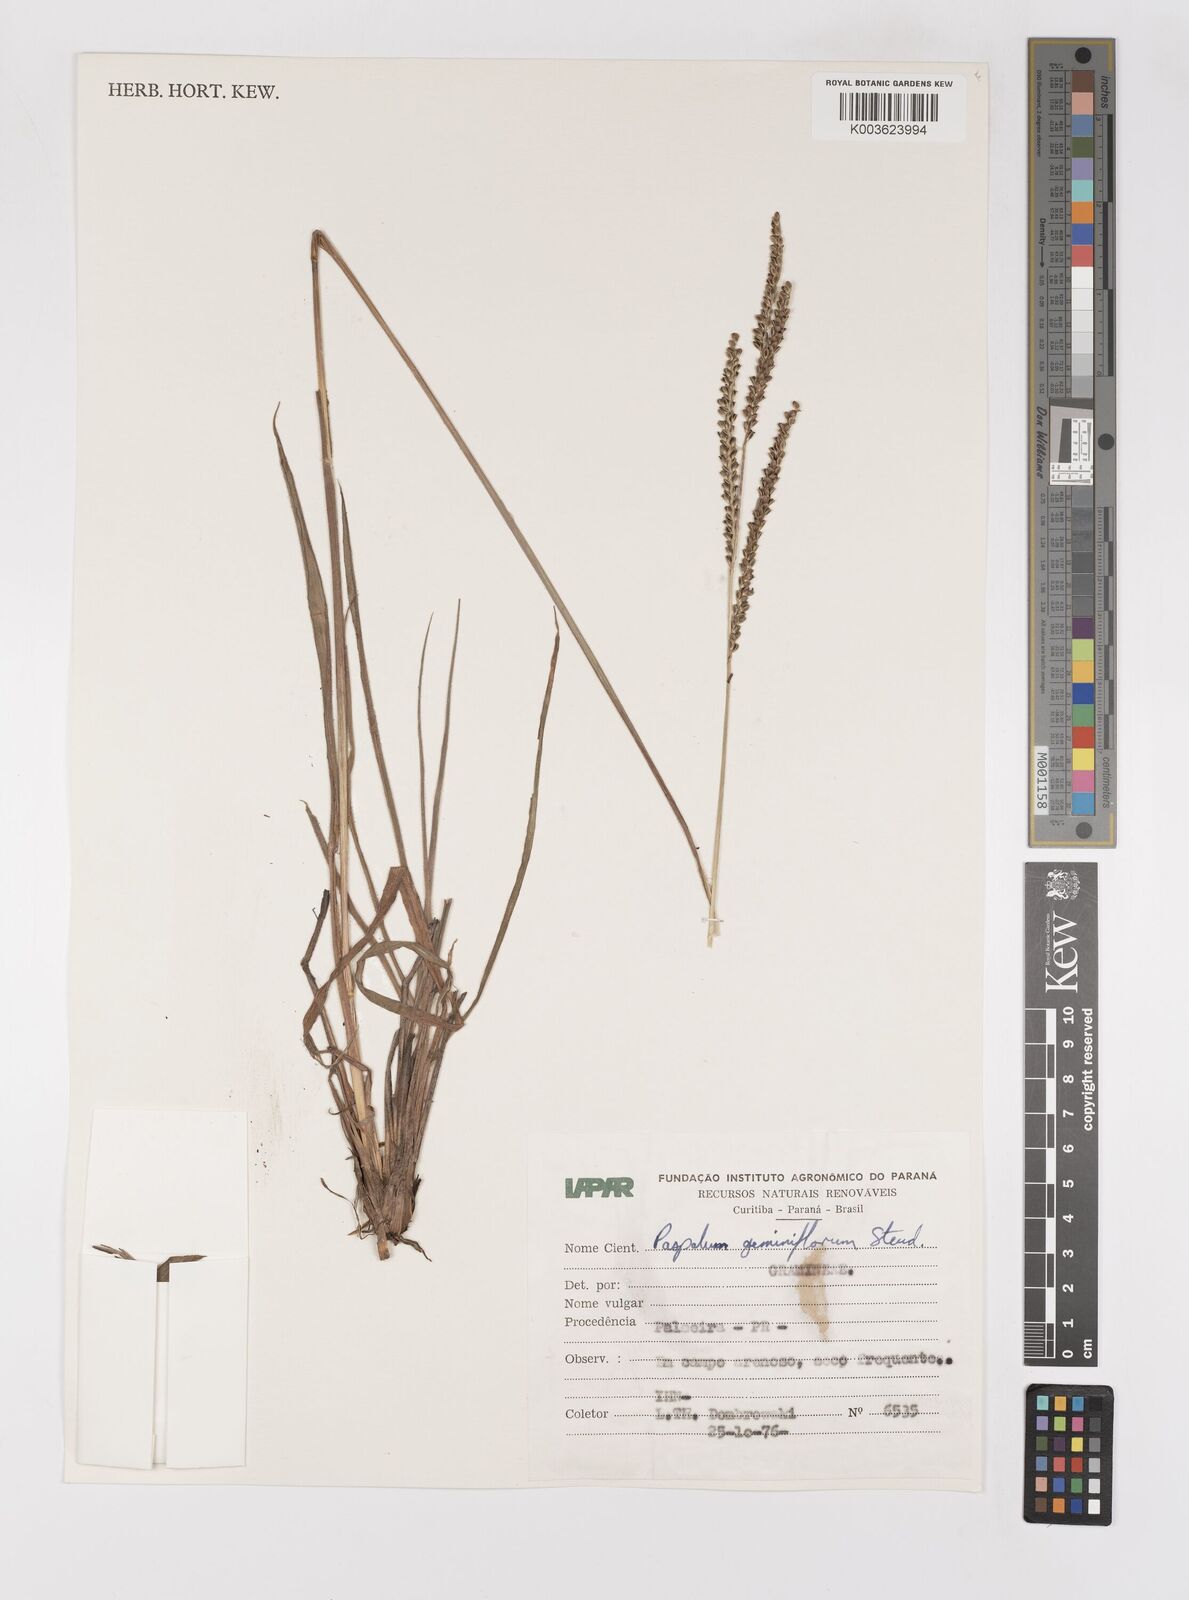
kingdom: Plantae
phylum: Tracheophyta
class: Liliopsida
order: Poales
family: Poaceae
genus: Paspalum
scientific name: Paspalum glaucescens
